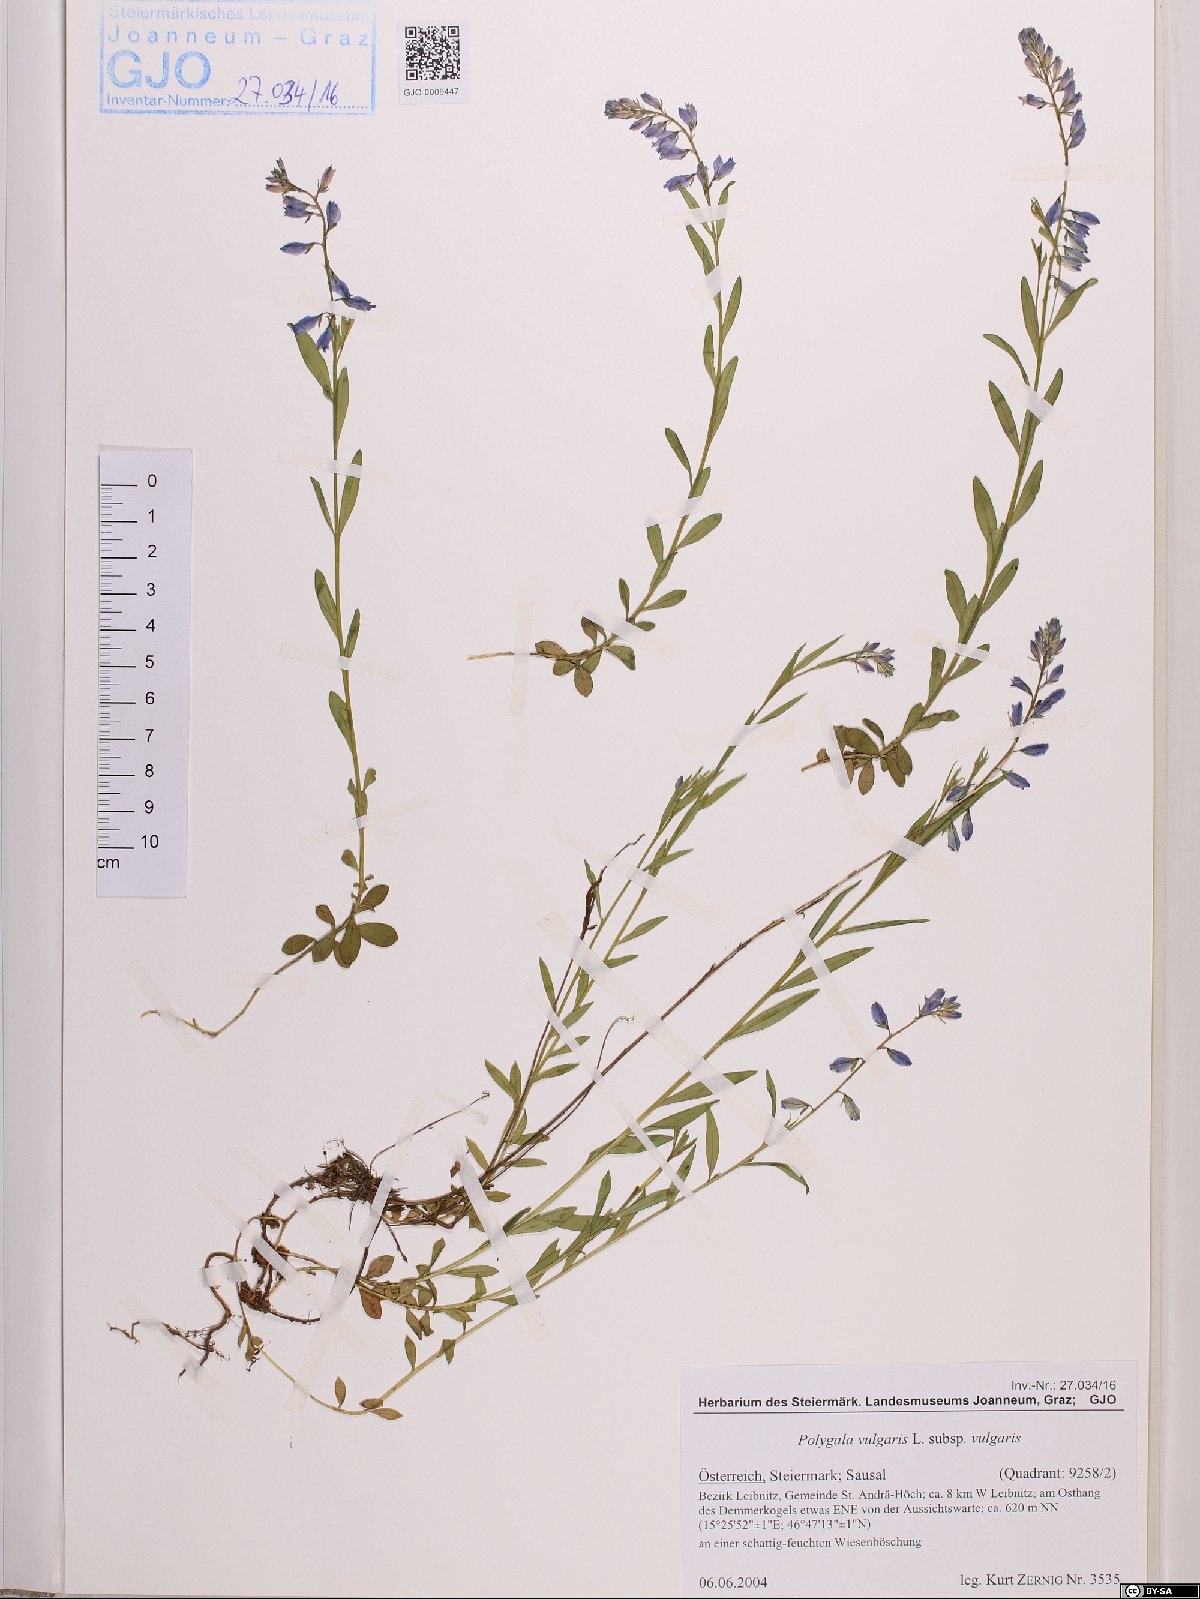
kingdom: Plantae
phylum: Tracheophyta
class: Magnoliopsida
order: Fabales
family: Polygalaceae
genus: Polygala
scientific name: Polygala vulgaris
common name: Common milkwort
